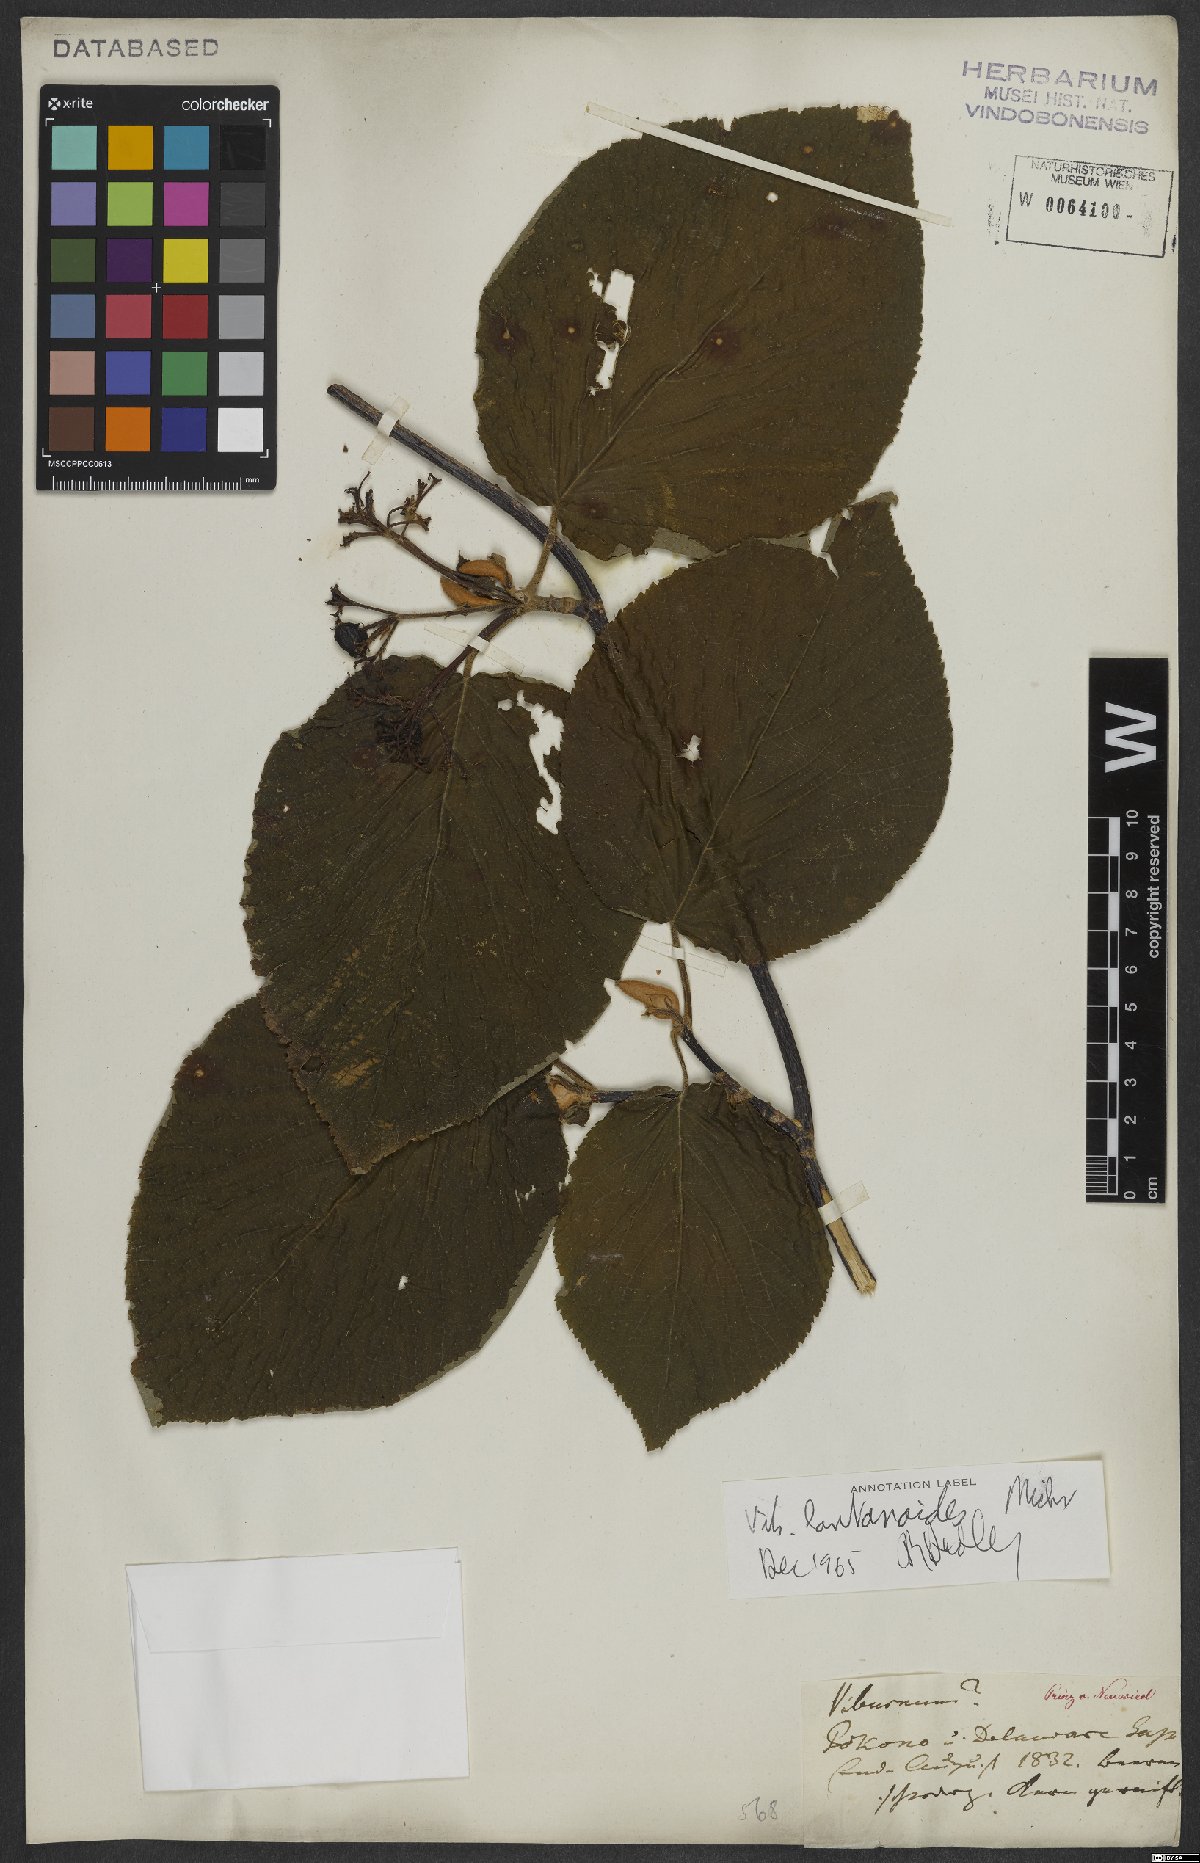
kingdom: Plantae
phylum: Tracheophyta
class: Magnoliopsida
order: Dipsacales
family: Viburnaceae
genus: Viburnum
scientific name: Viburnum lantanoides
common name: Hobblebush
